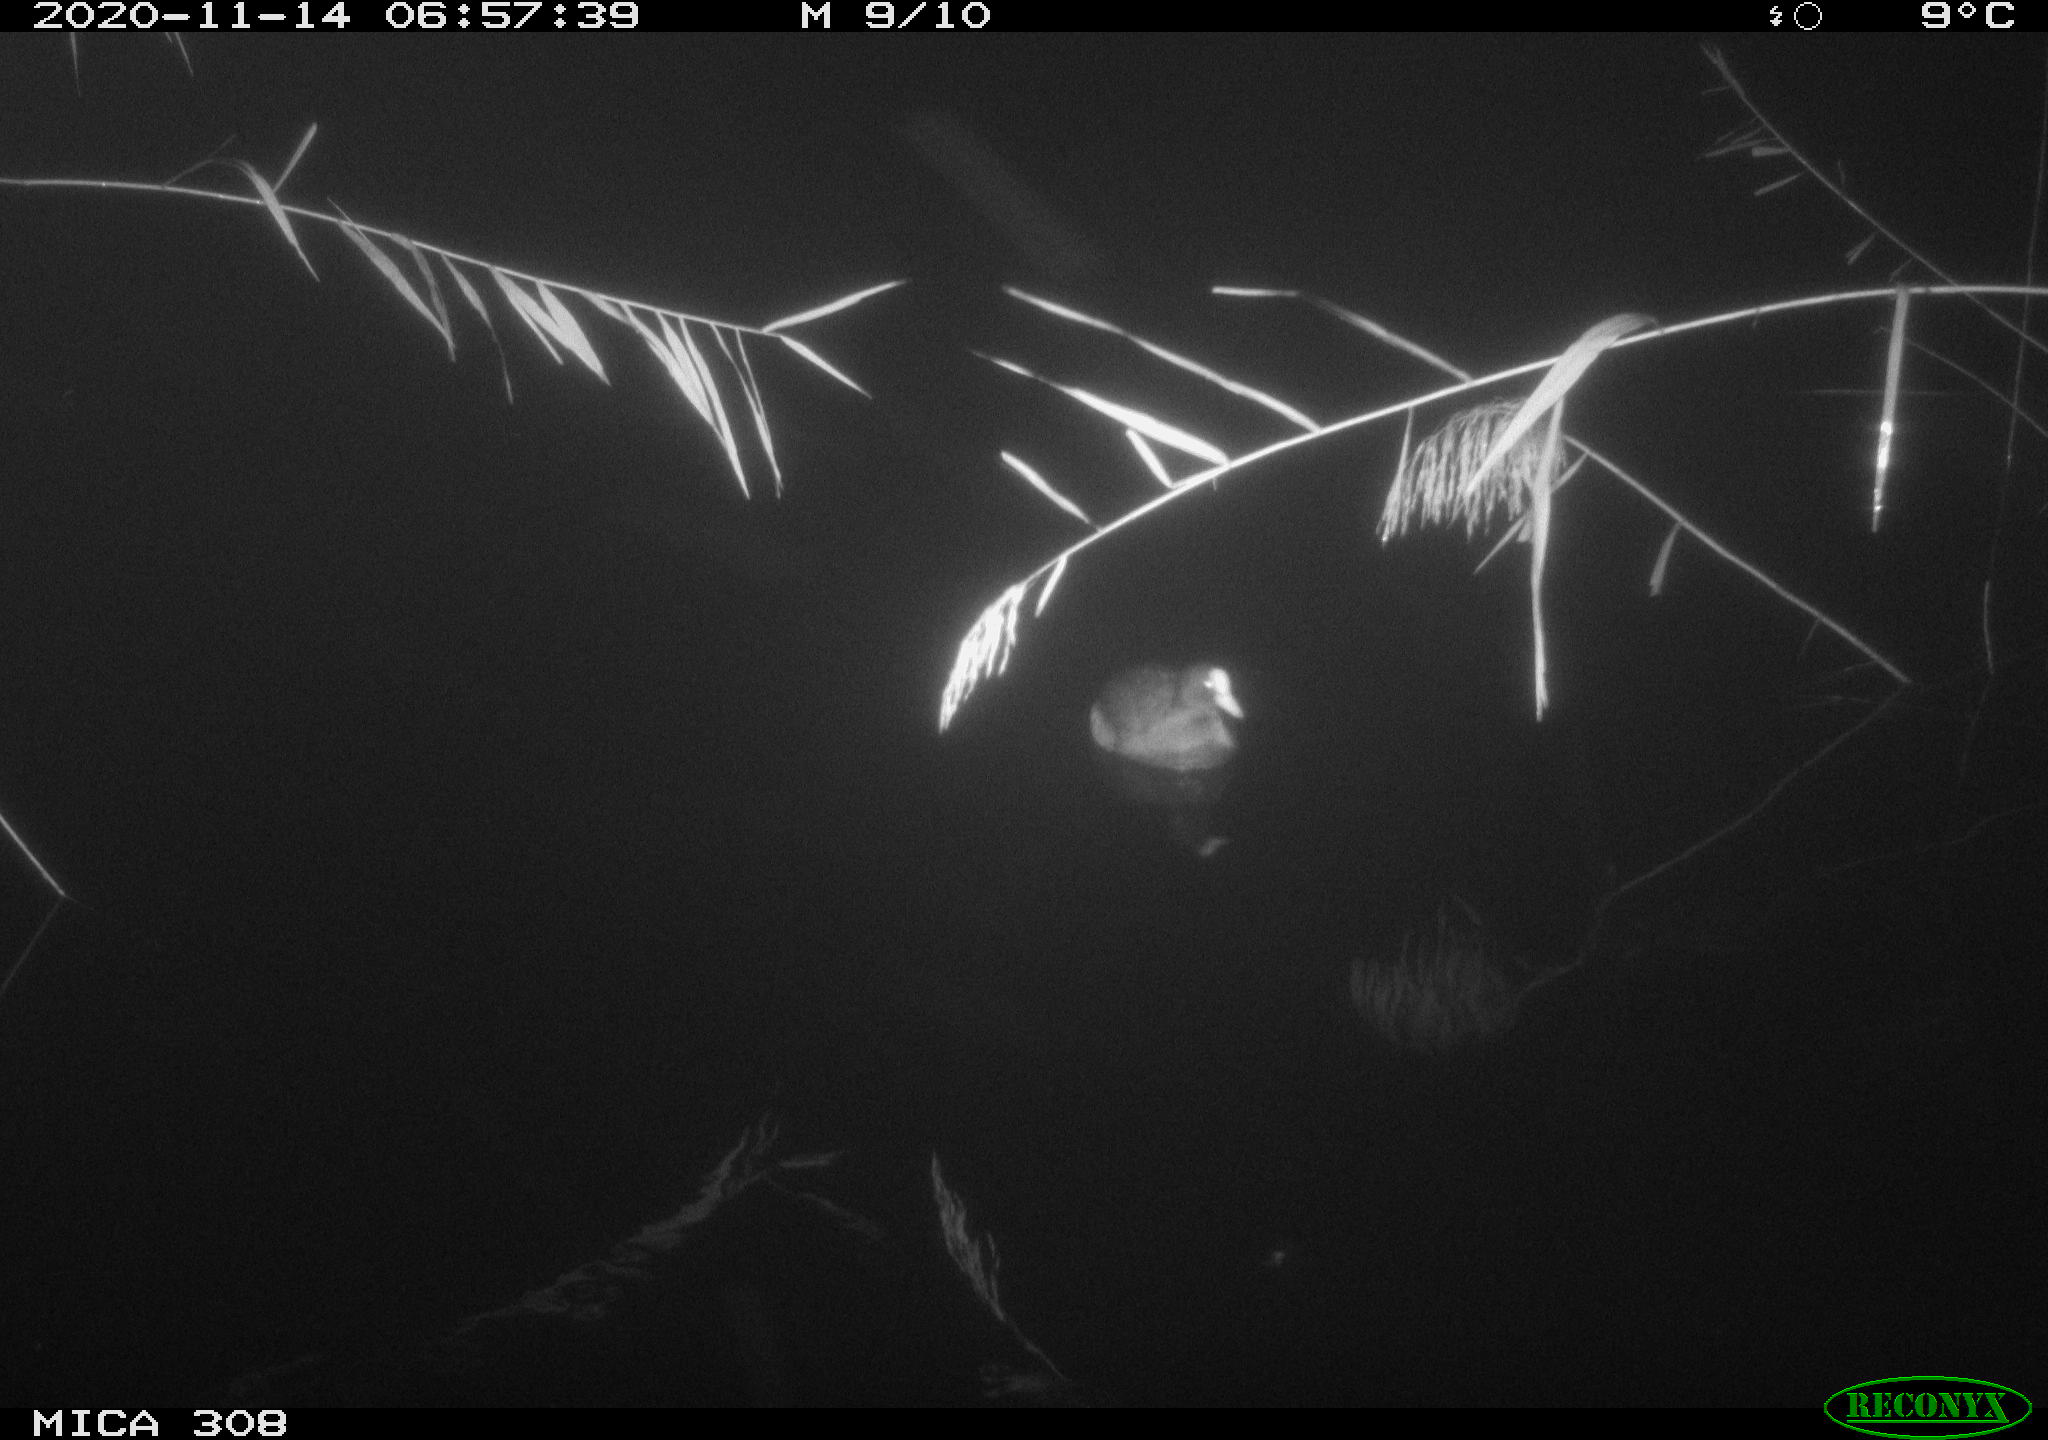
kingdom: Animalia
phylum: Chordata
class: Aves
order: Gruiformes
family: Rallidae
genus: Fulica
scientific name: Fulica atra
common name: Eurasian coot
